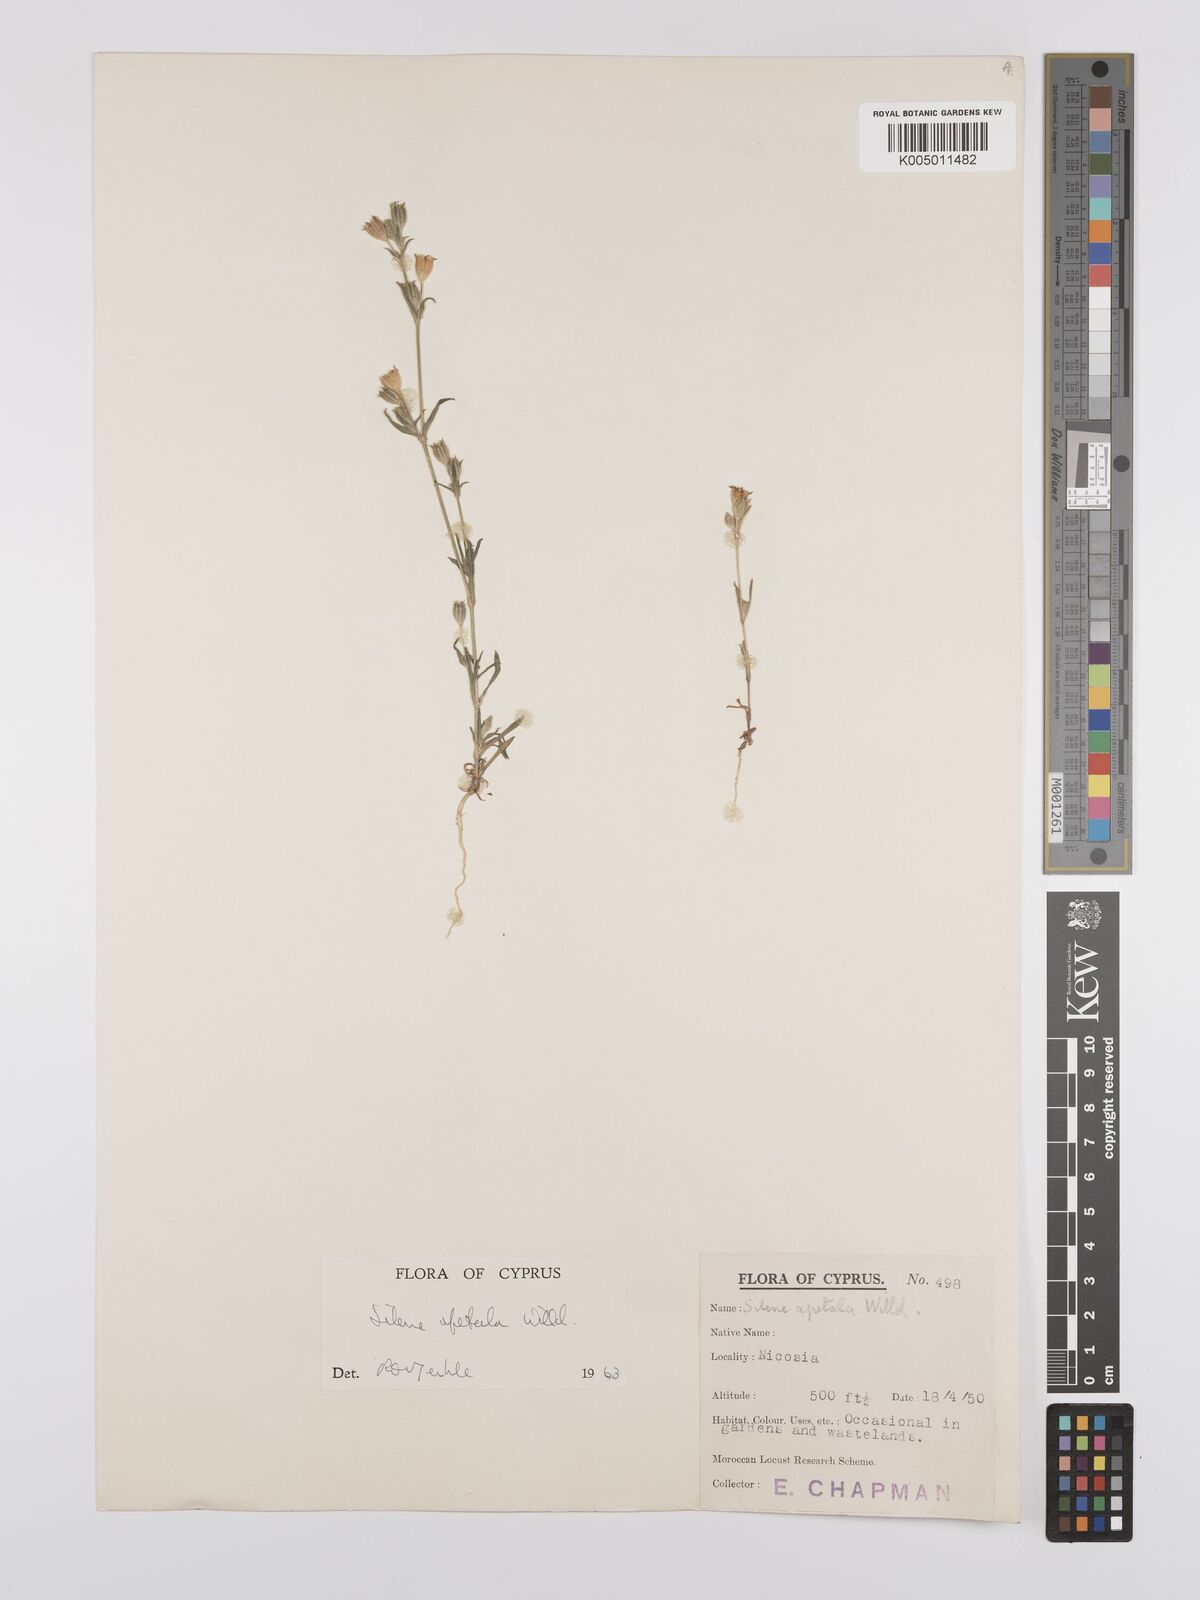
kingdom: Plantae
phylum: Tracheophyta
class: Magnoliopsida
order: Caryophyllales
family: Caryophyllaceae
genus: Silene
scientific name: Silene apetala
